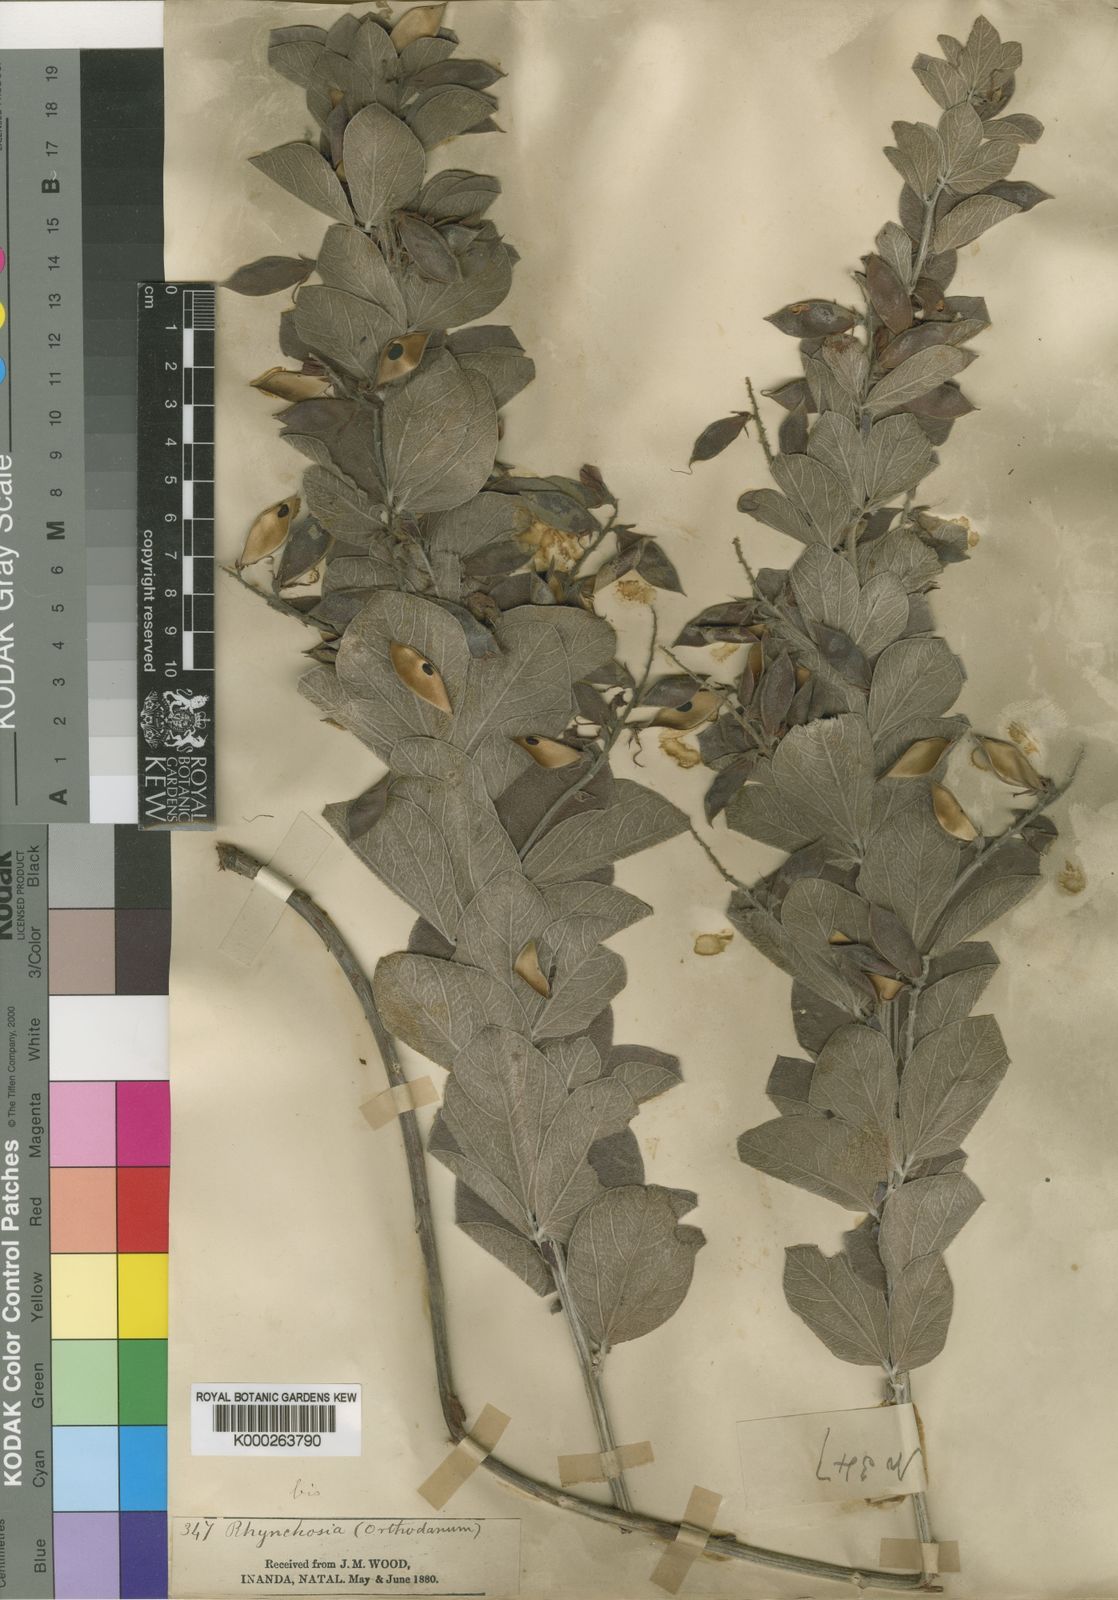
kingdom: Plantae
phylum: Tracheophyta
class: Magnoliopsida
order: Fabales
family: Fabaceae
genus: Rhynchosia
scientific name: Rhynchosia woodii
